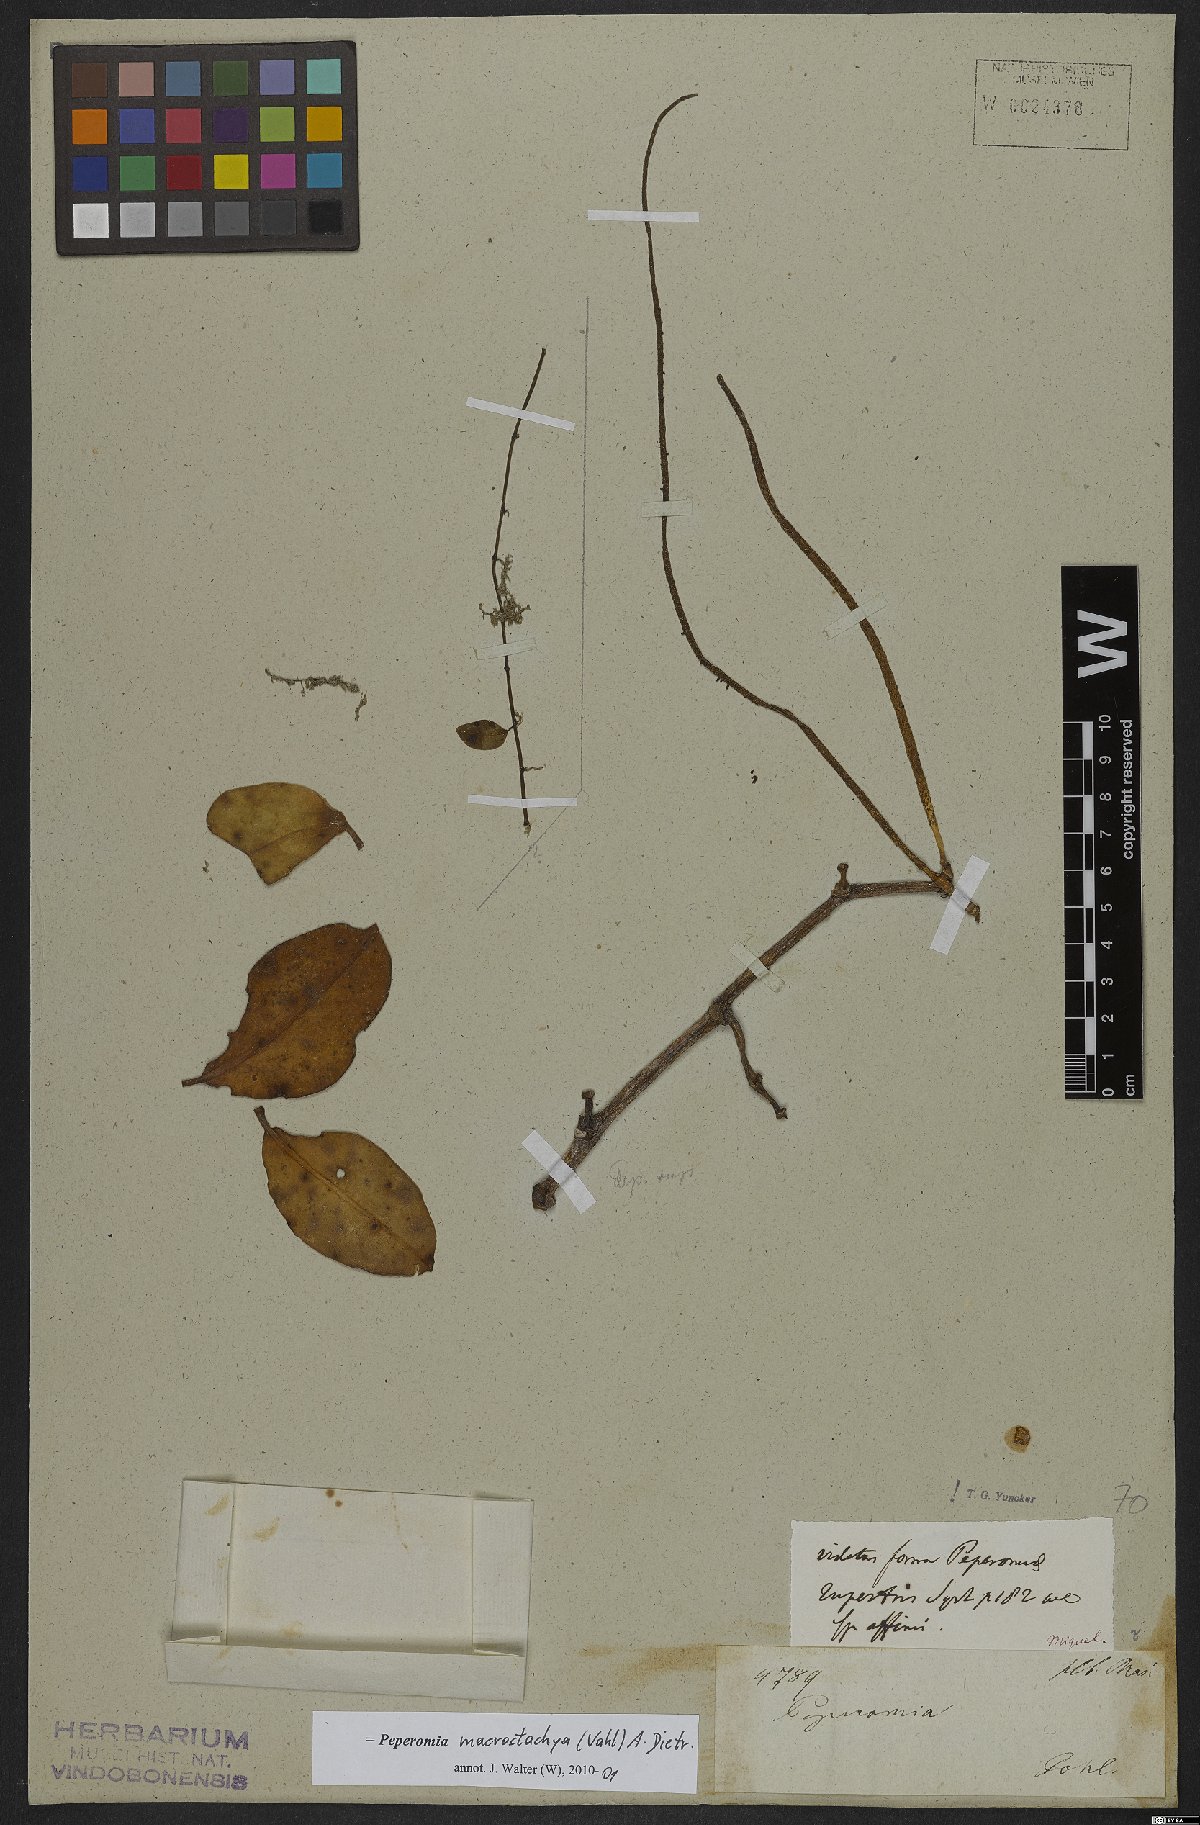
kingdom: Plantae
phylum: Tracheophyta
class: Magnoliopsida
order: Piperales
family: Piperaceae
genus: Peperomia
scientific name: Peperomia macrostachyos
